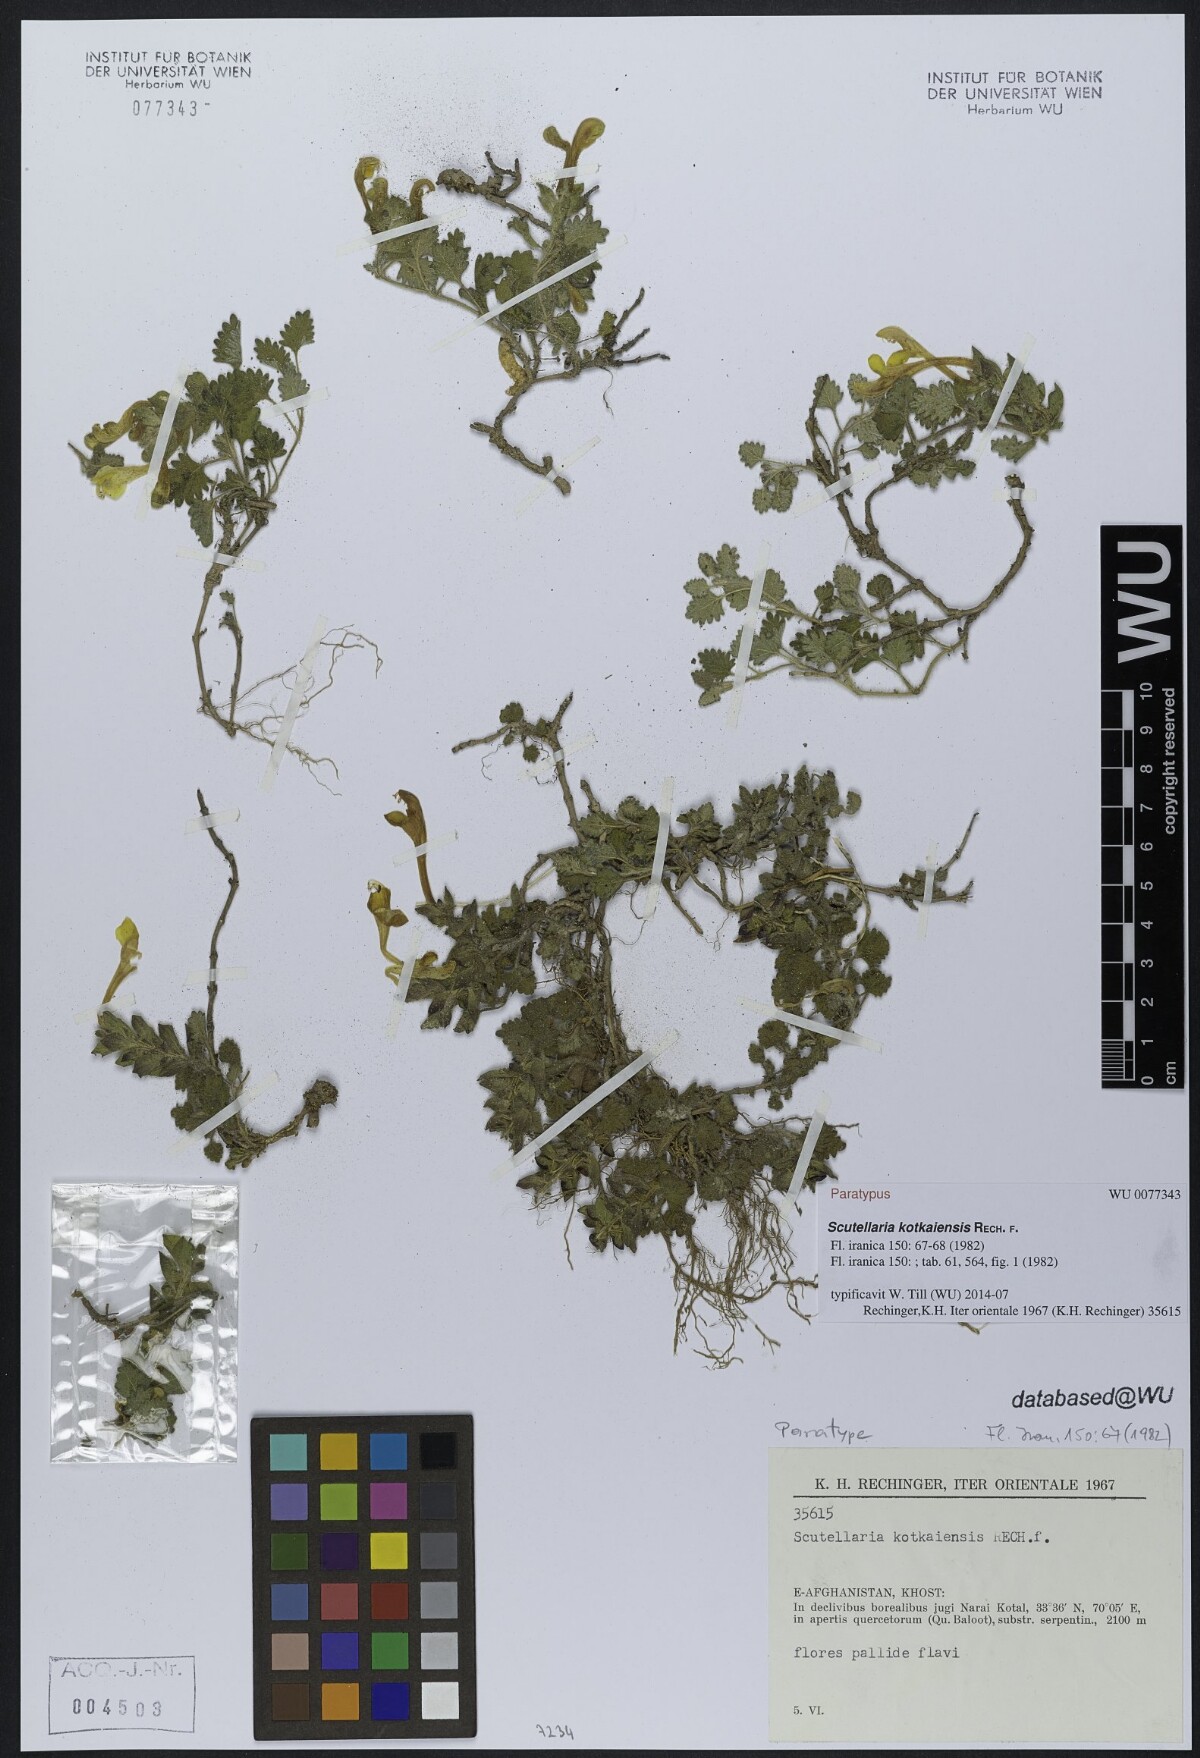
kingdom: Plantae
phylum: Tracheophyta
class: Magnoliopsida
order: Lamiales
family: Lamiaceae
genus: Scutellaria
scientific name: Scutellaria kotkaiensis
